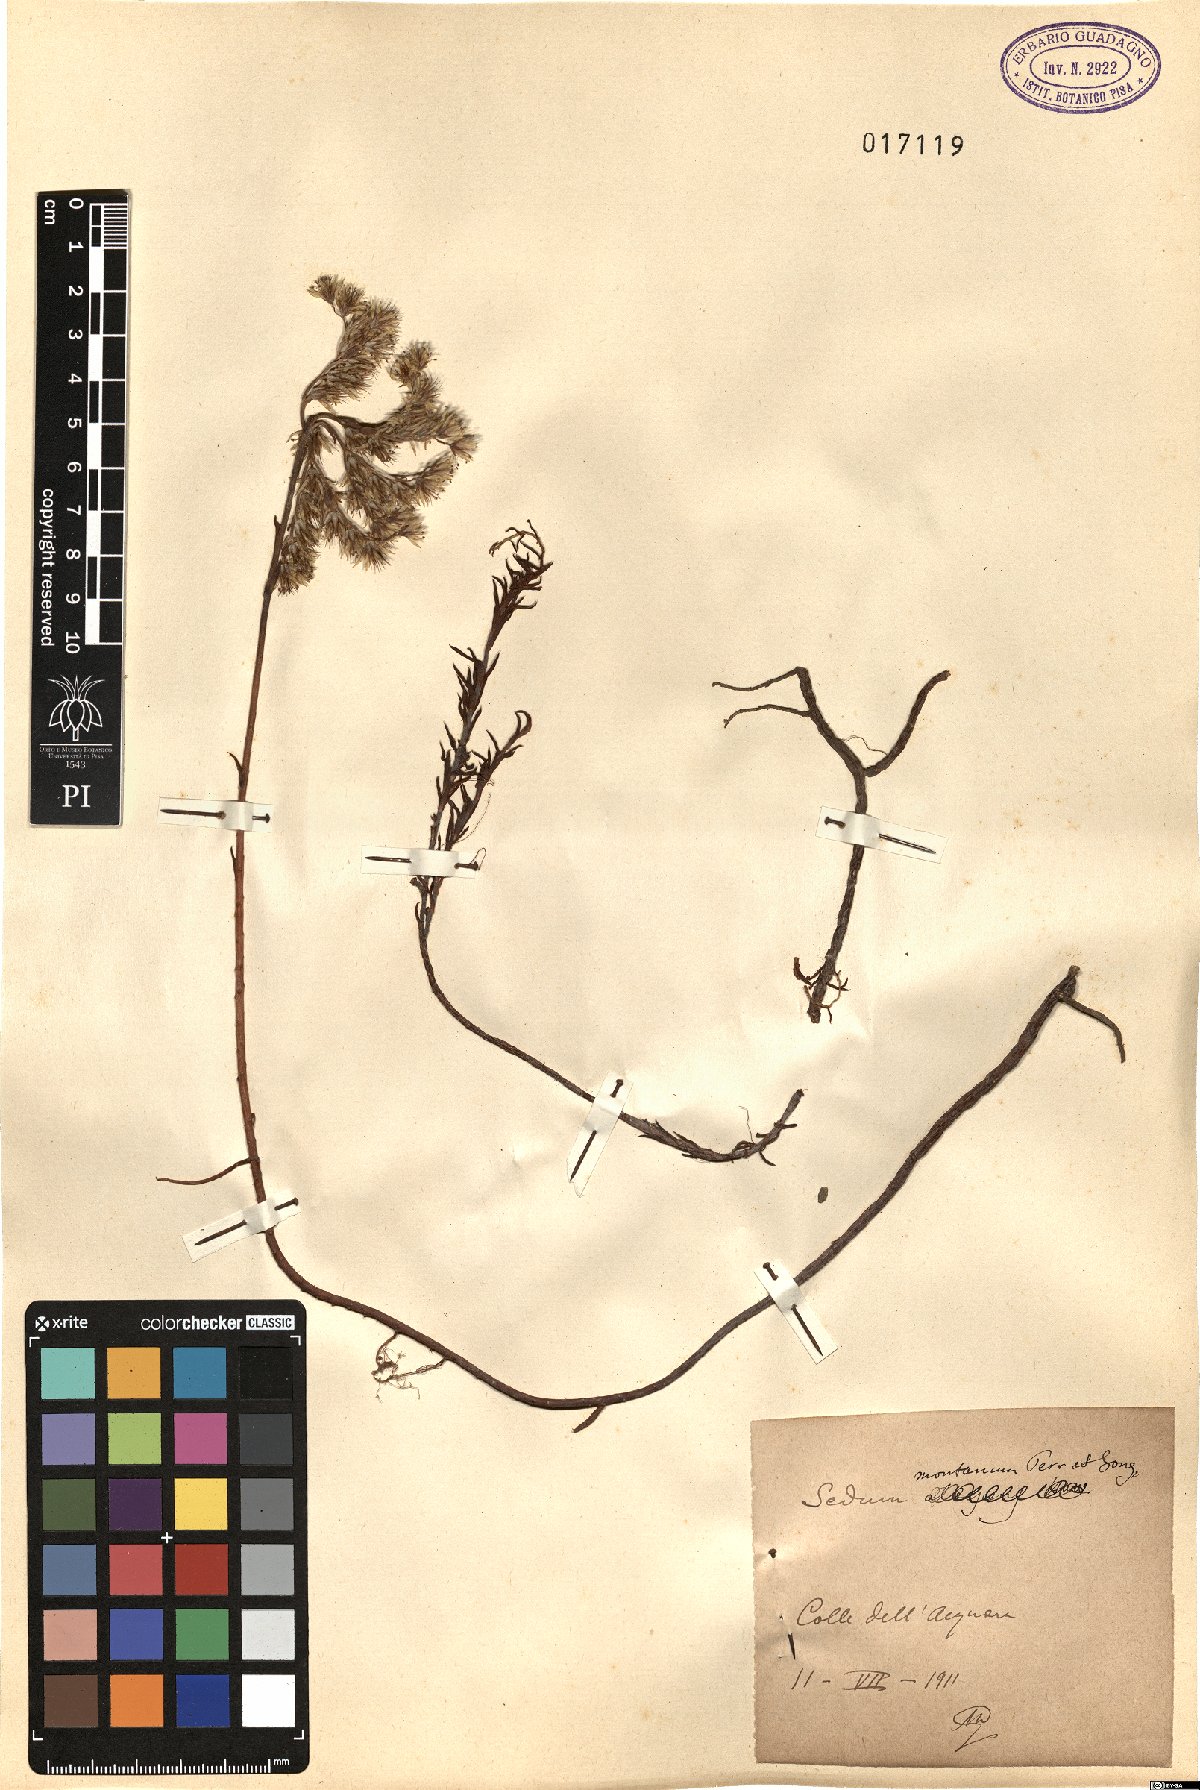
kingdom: Plantae
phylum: Tracheophyta
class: Magnoliopsida
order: Saxifragales
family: Crassulaceae
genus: Petrosedum
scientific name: Petrosedum montanum
